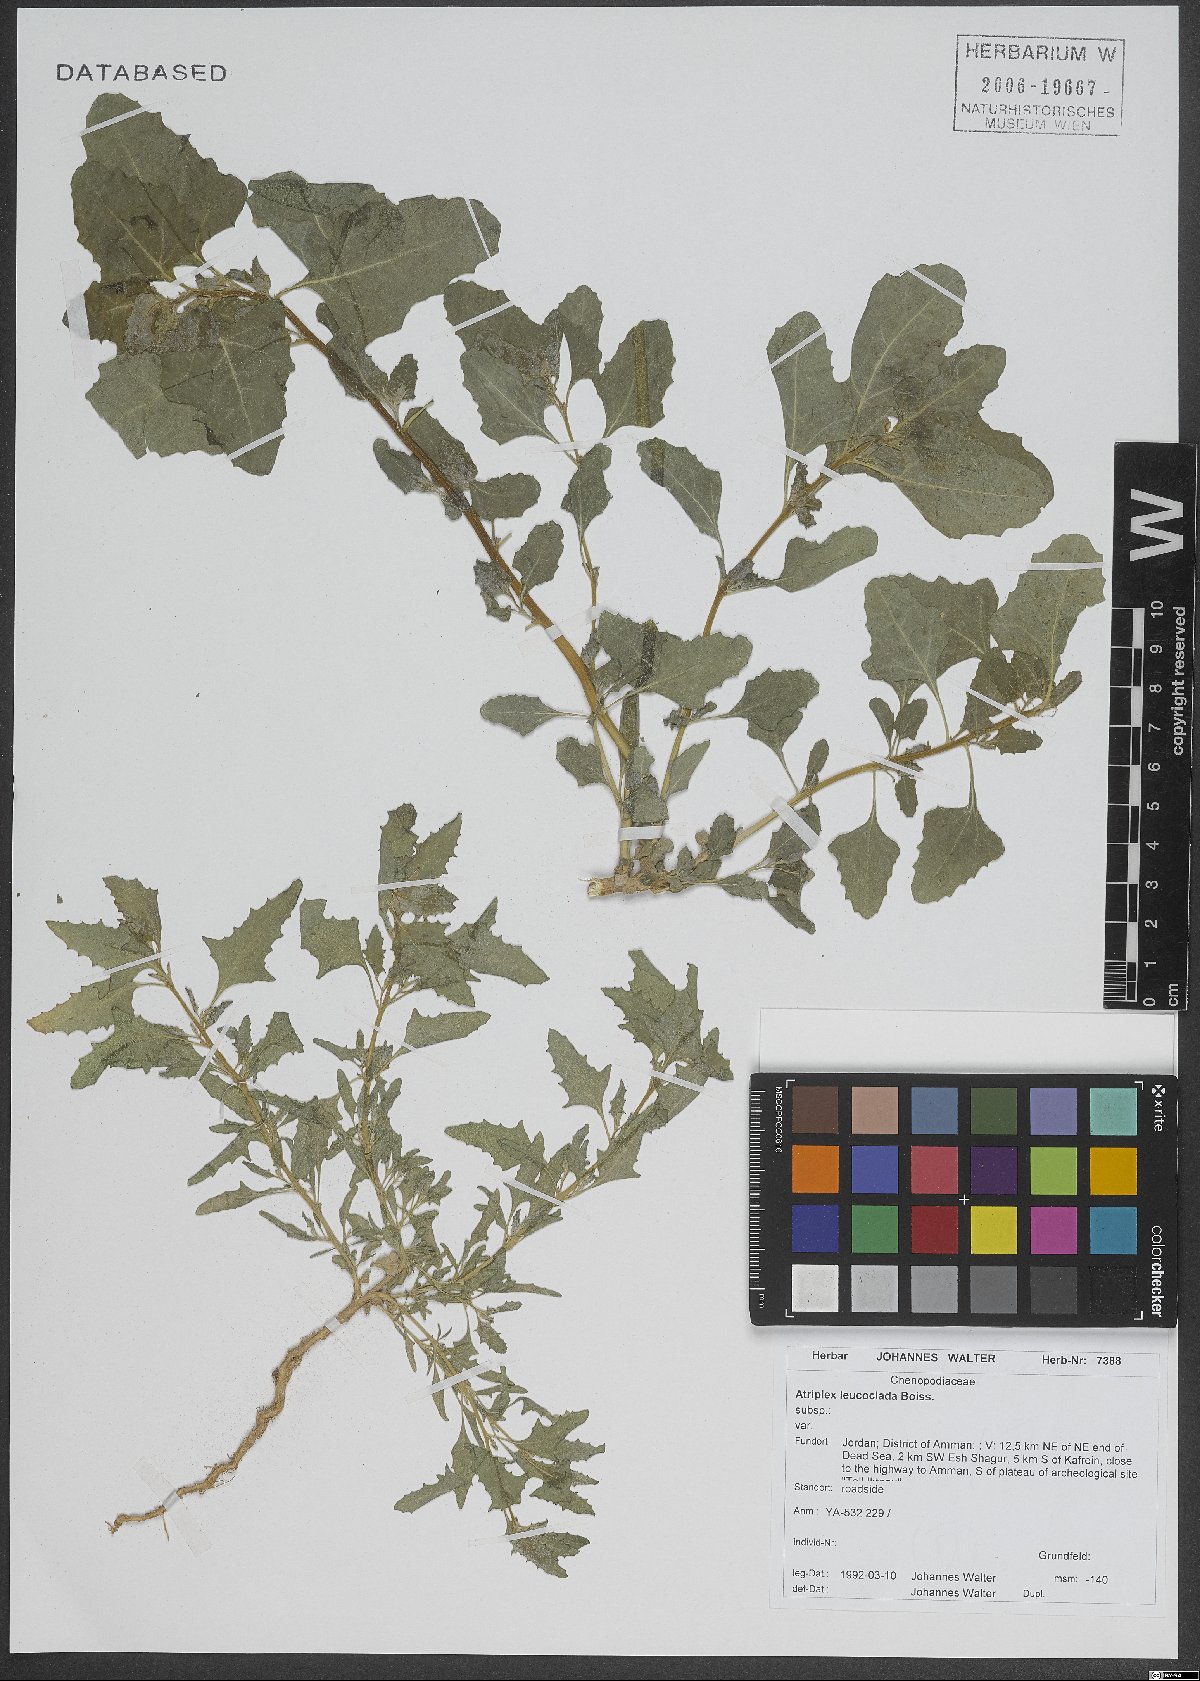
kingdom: Plantae
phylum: Tracheophyta
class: Magnoliopsida
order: Caryophyllales
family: Amaranthaceae
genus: Atriplex
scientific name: Atriplex turcomanica
